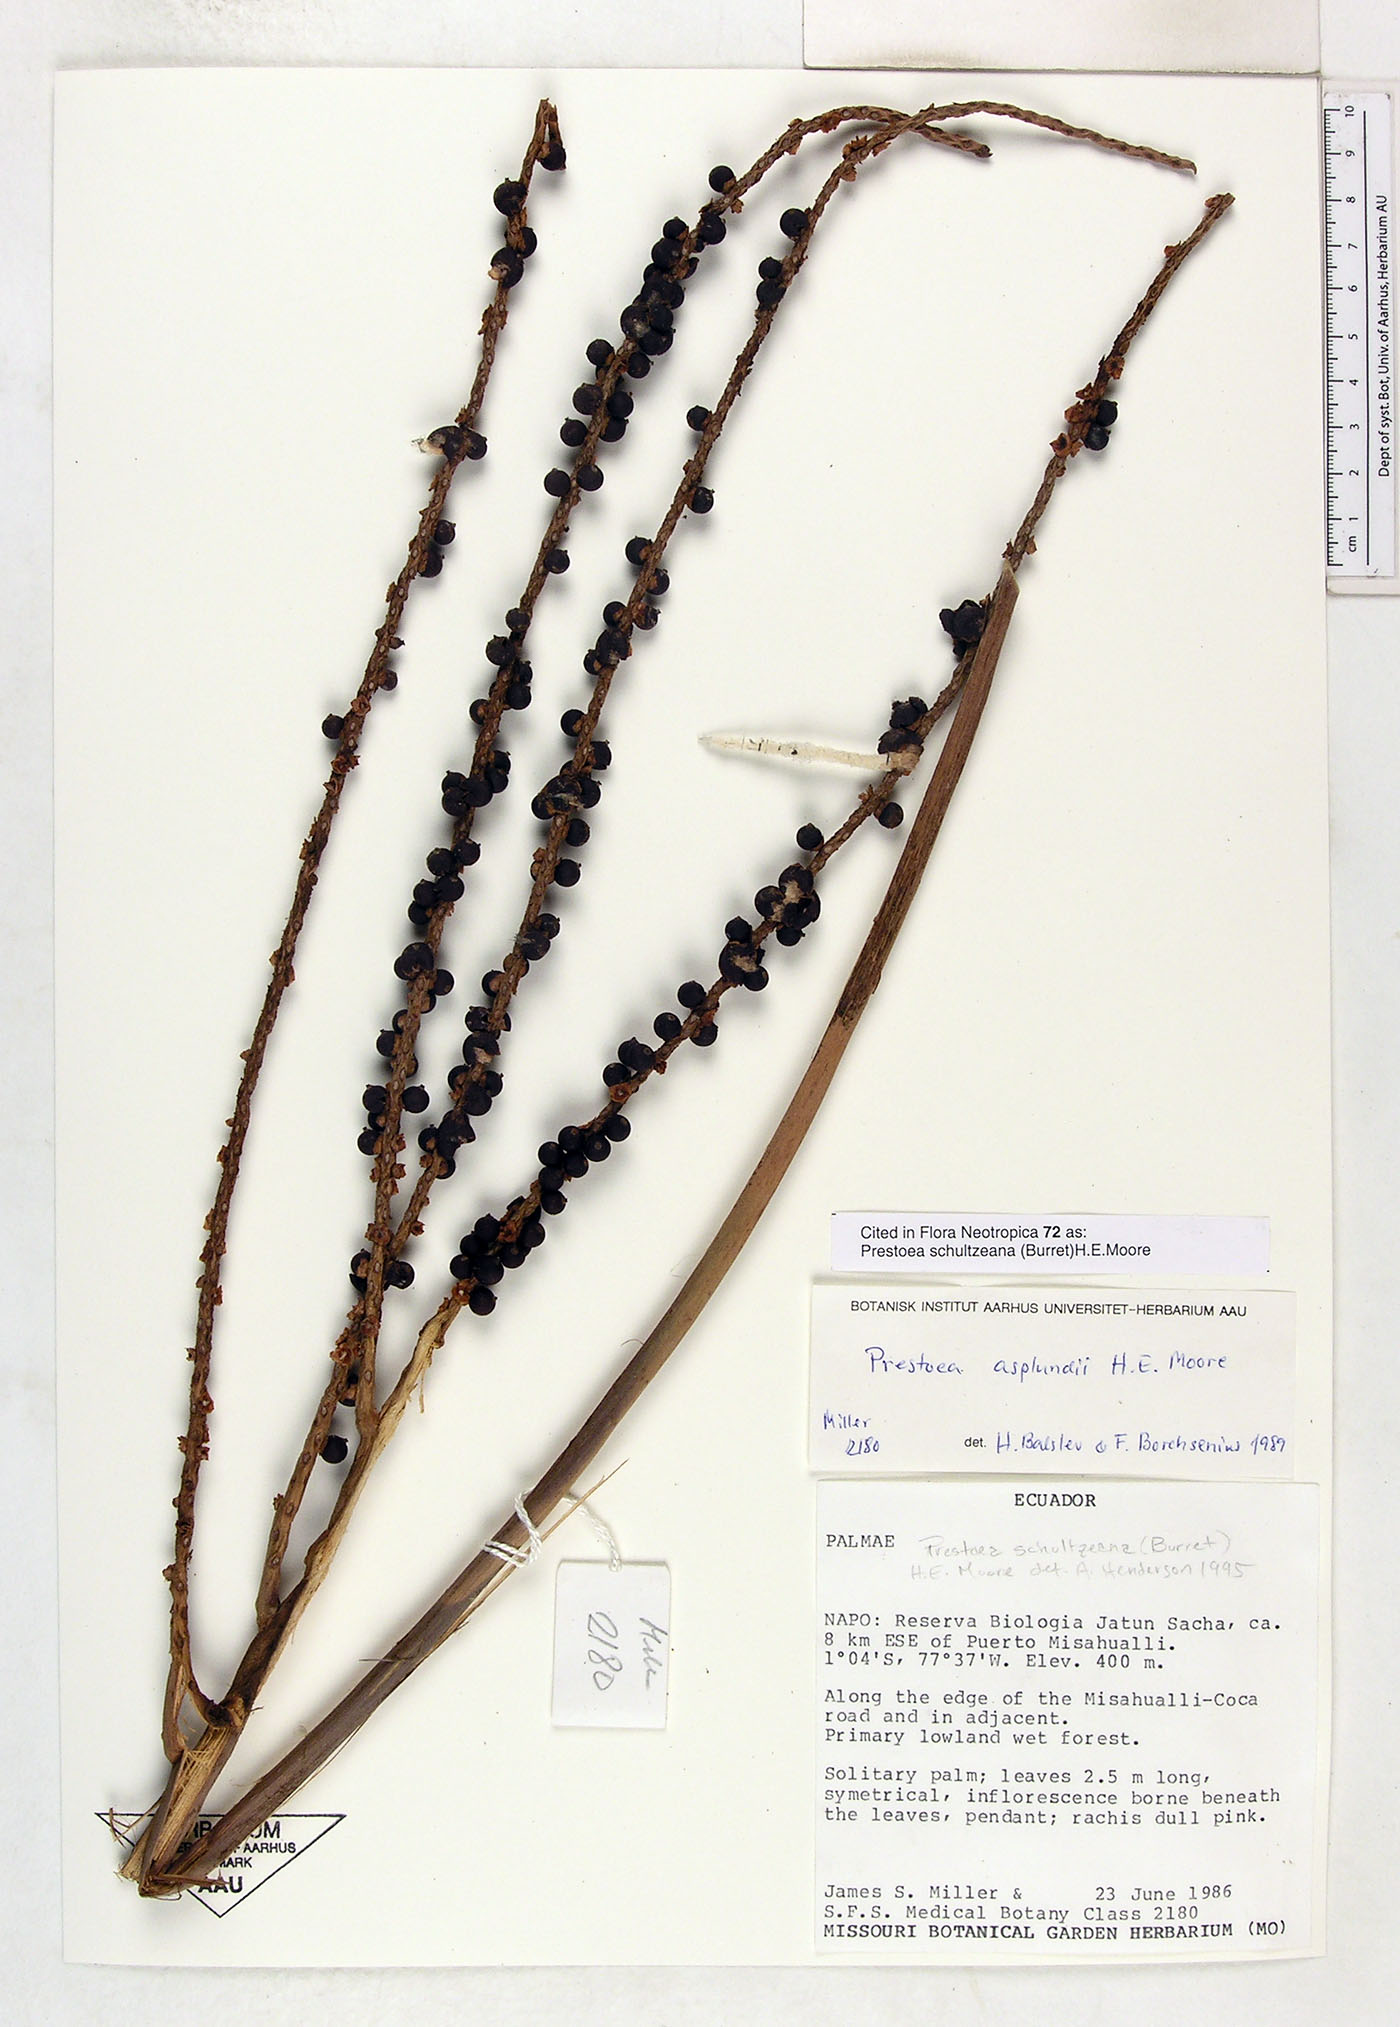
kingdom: Plantae
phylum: Tracheophyta
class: Liliopsida
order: Arecales
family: Arecaceae
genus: Prestoea
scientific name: Prestoea schultzeana
